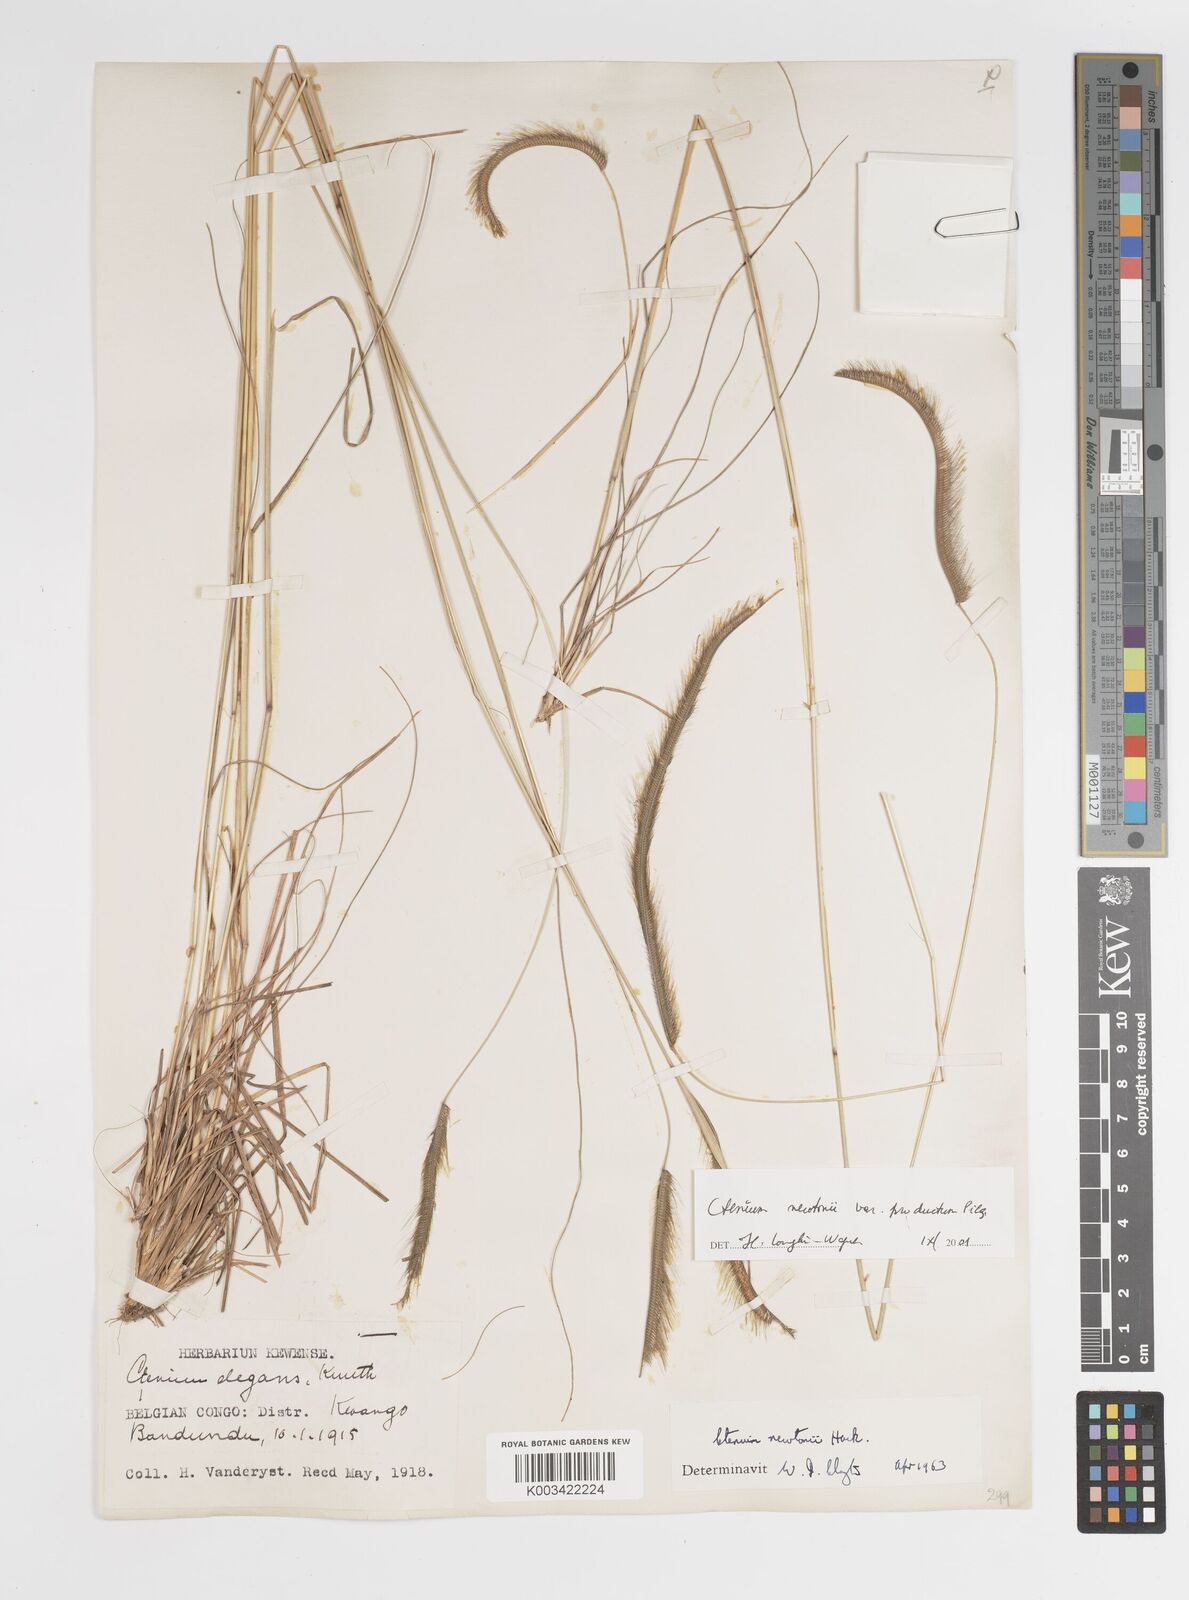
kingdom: Plantae
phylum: Tracheophyta
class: Liliopsida
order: Poales
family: Poaceae
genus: Ctenium
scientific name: Ctenium newtonii
